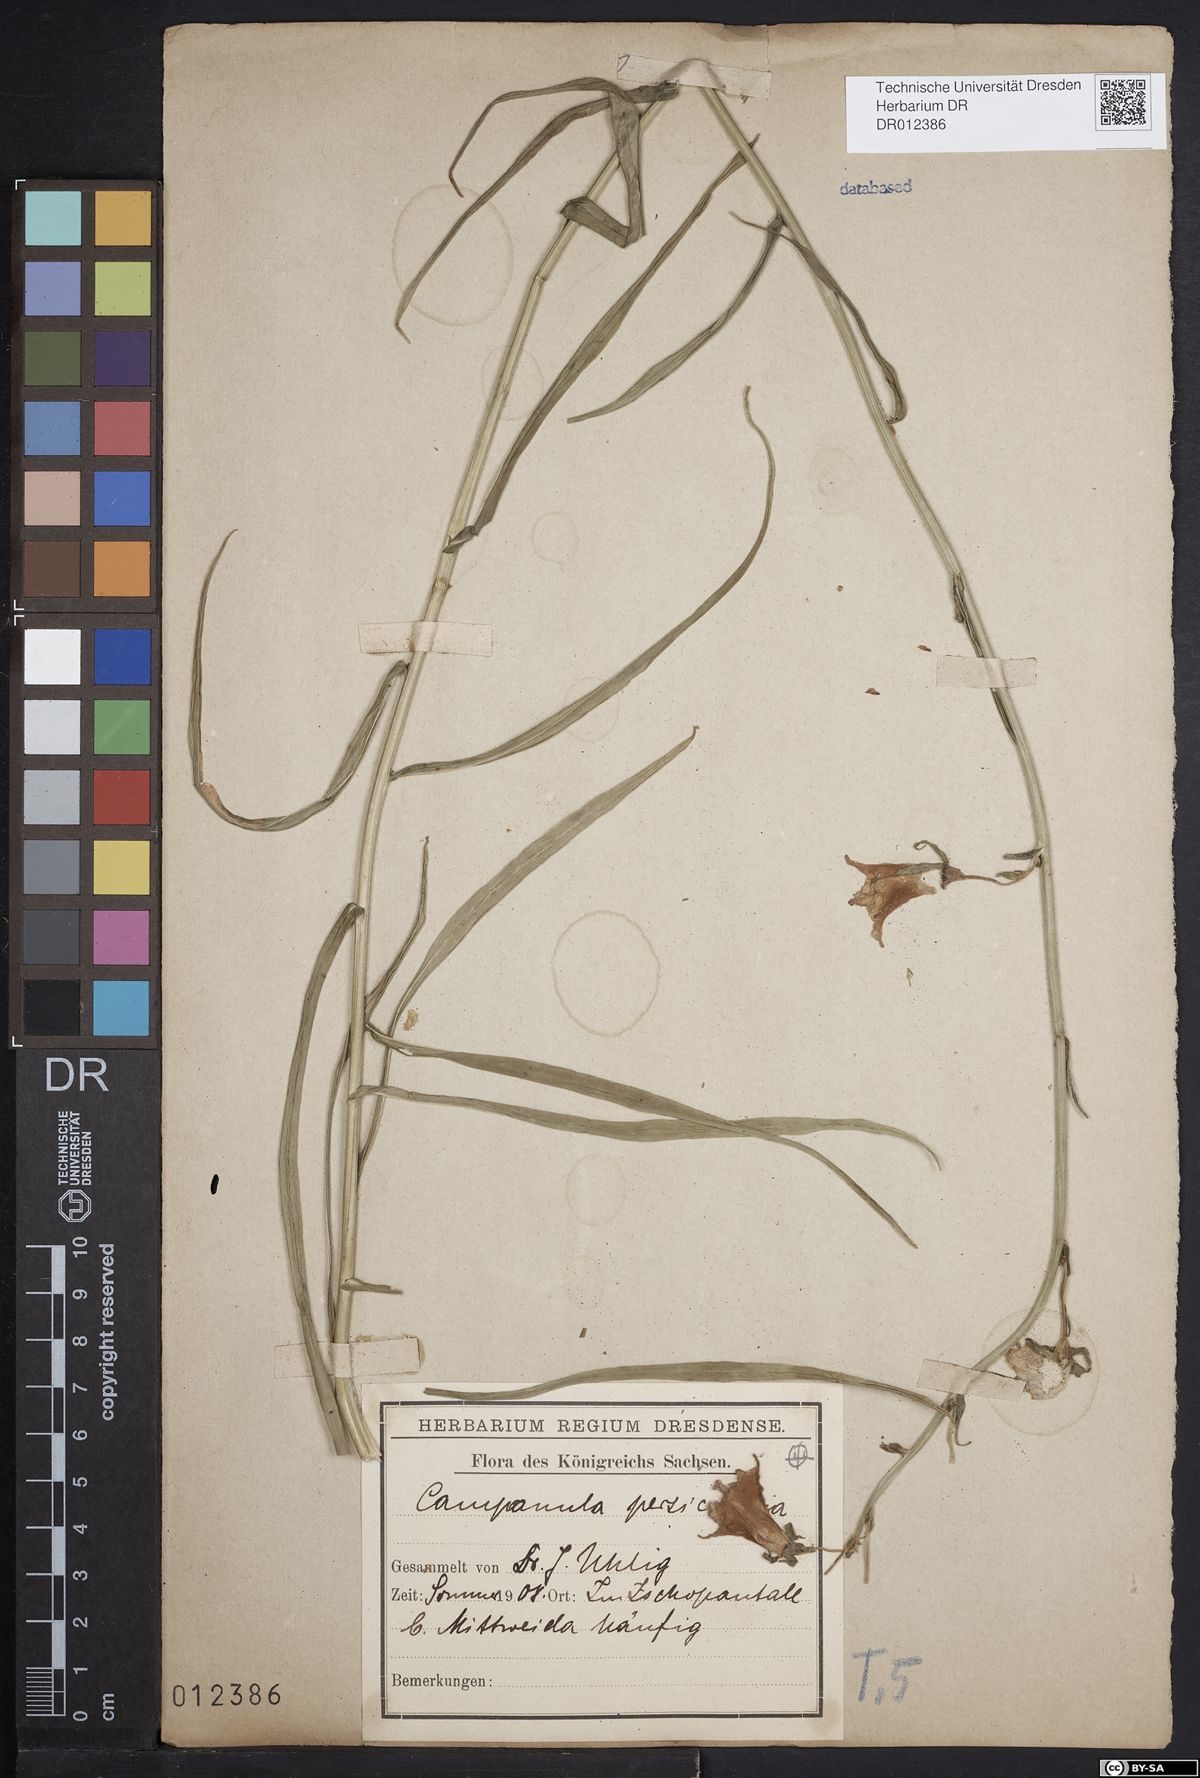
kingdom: Plantae
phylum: Tracheophyta
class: Magnoliopsida
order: Asterales
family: Campanulaceae
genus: Campanula
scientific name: Campanula persicifolia
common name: Peach-leaved bellflower
